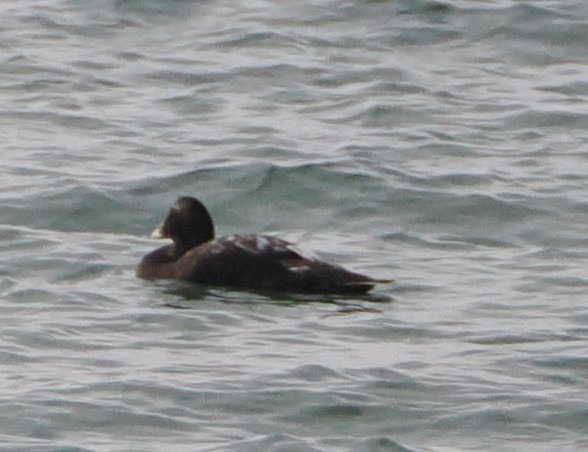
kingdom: Animalia
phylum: Chordata
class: Aves
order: Anseriformes
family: Anatidae
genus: Somateria
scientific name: Somateria mollissima
